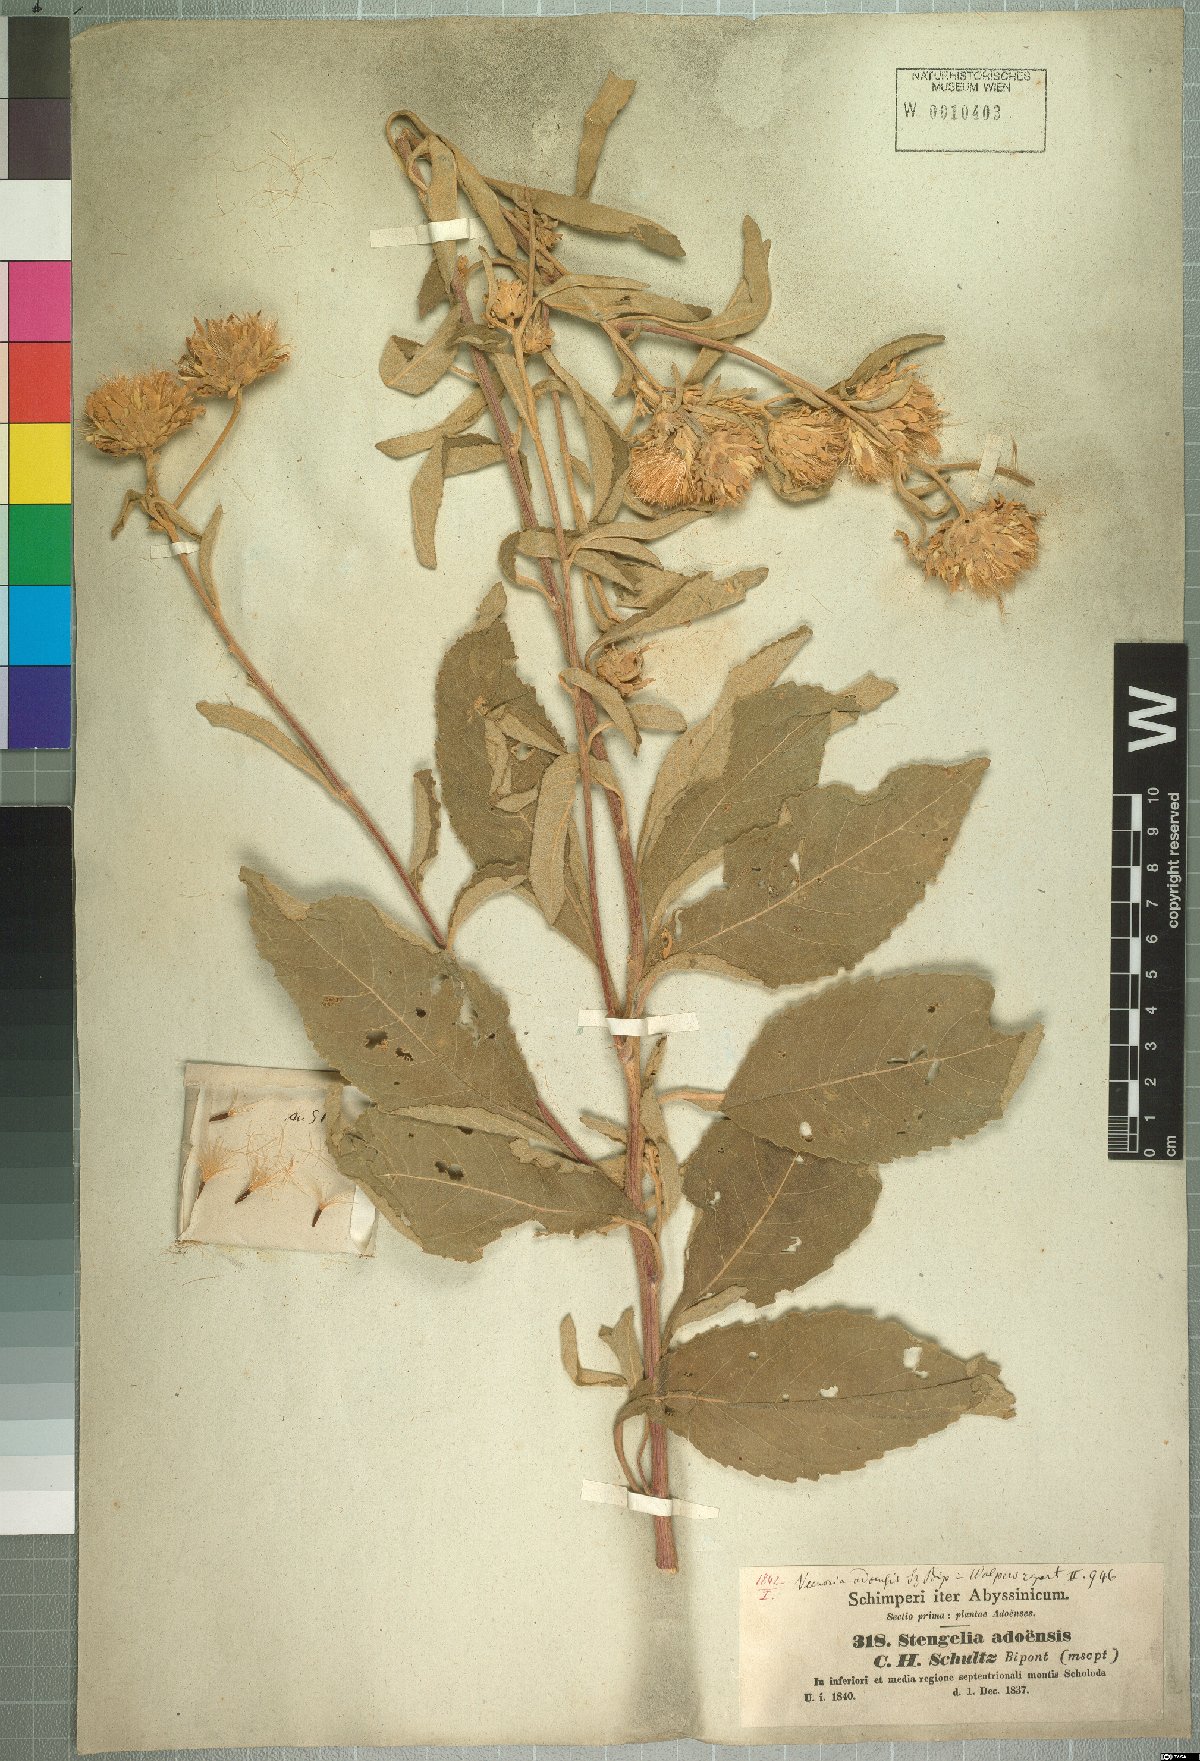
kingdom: Plantae
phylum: Tracheophyta
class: Magnoliopsida
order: Asterales
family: Asteraceae
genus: Baccharoides
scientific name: Baccharoides adoensis
